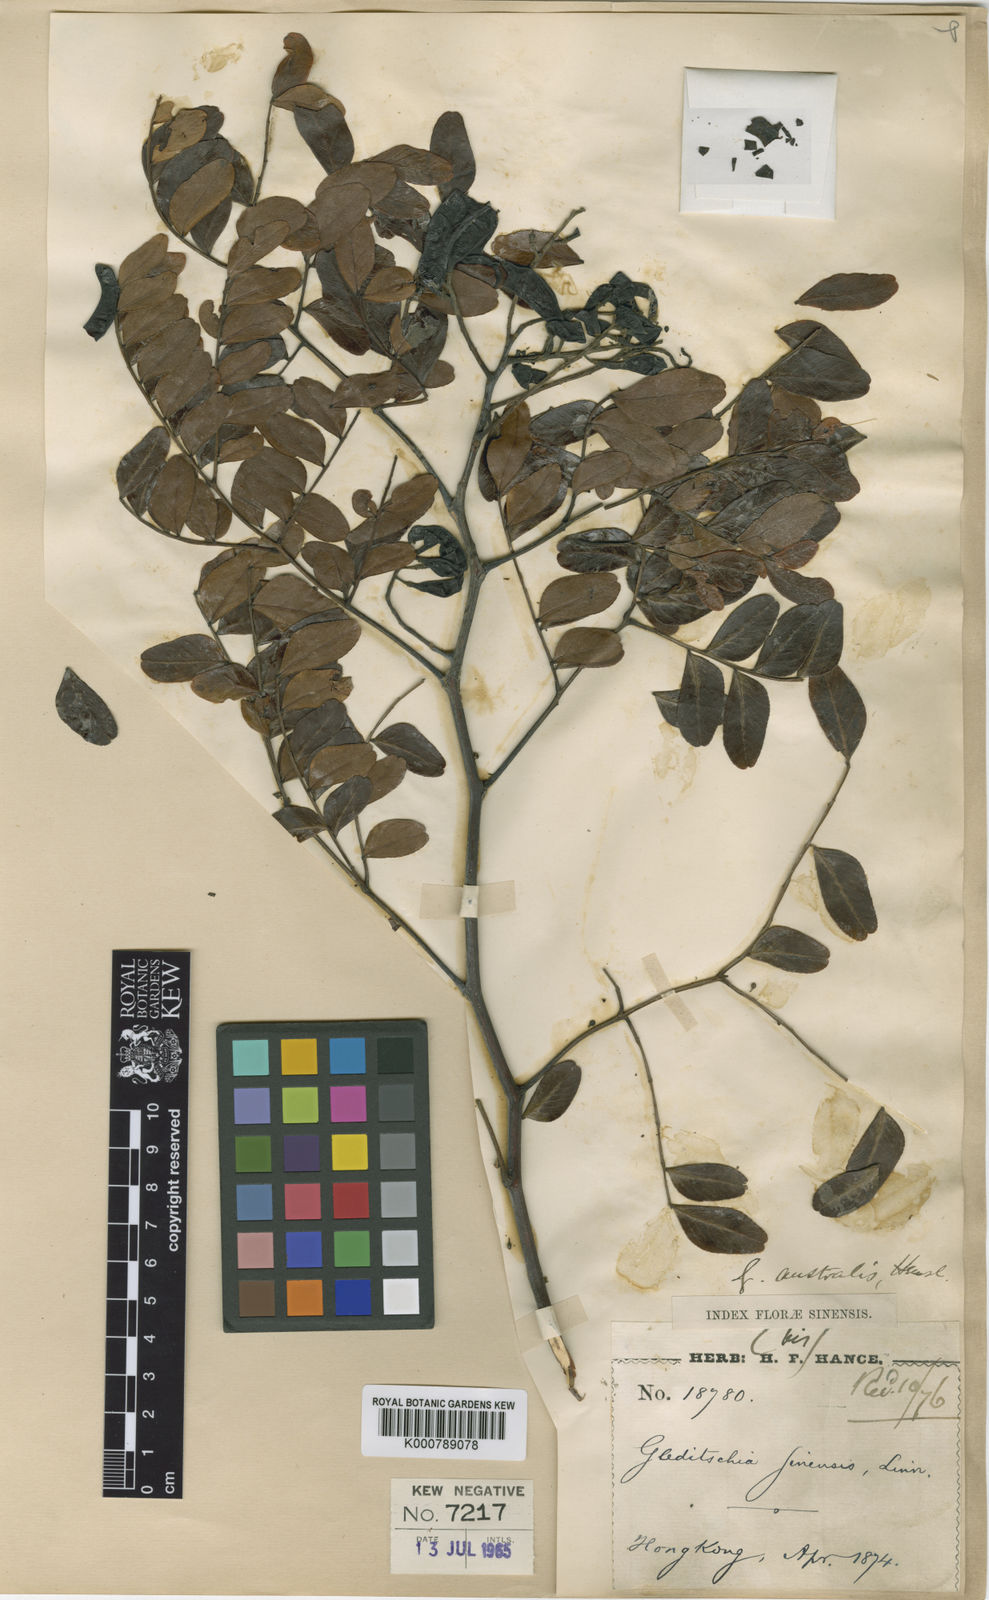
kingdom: Plantae
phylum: Tracheophyta
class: Magnoliopsida
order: Fabales
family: Fabaceae
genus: Gleditsia
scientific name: Gleditsia australis
